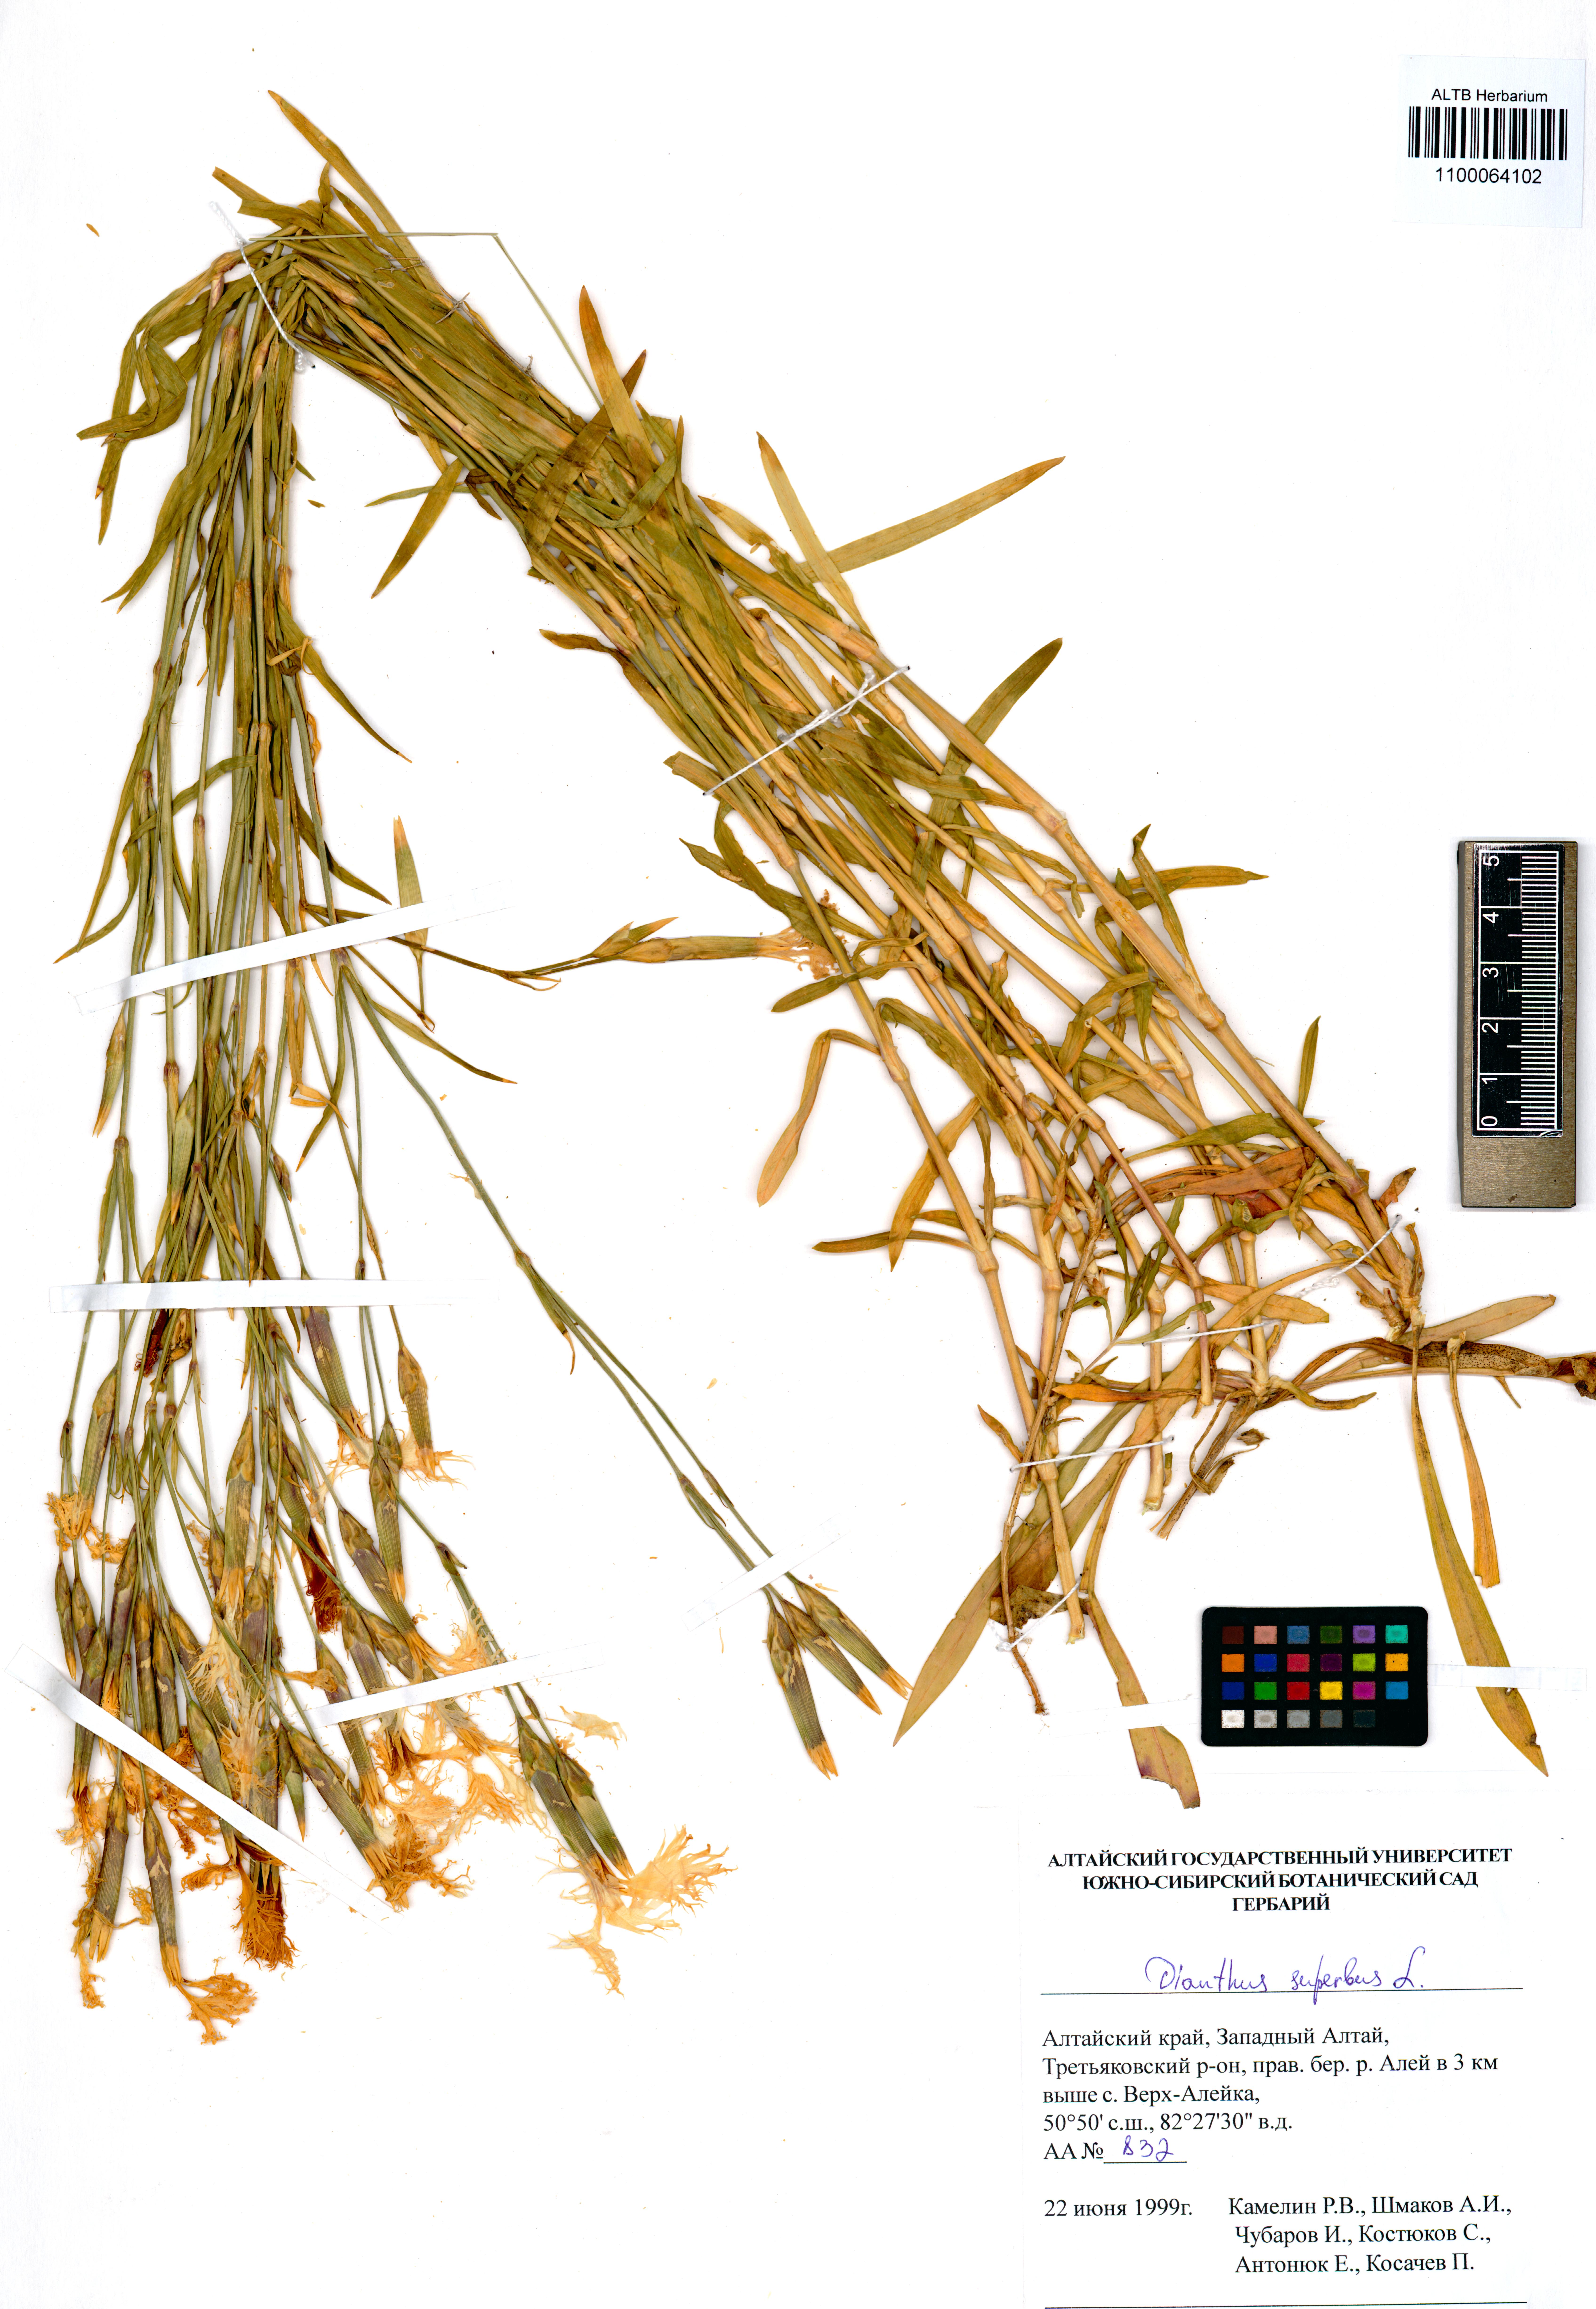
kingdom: Plantae
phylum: Tracheophyta
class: Magnoliopsida
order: Caryophyllales
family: Caryophyllaceae
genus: Dianthus
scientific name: Dianthus superbus
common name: Fringed pink
